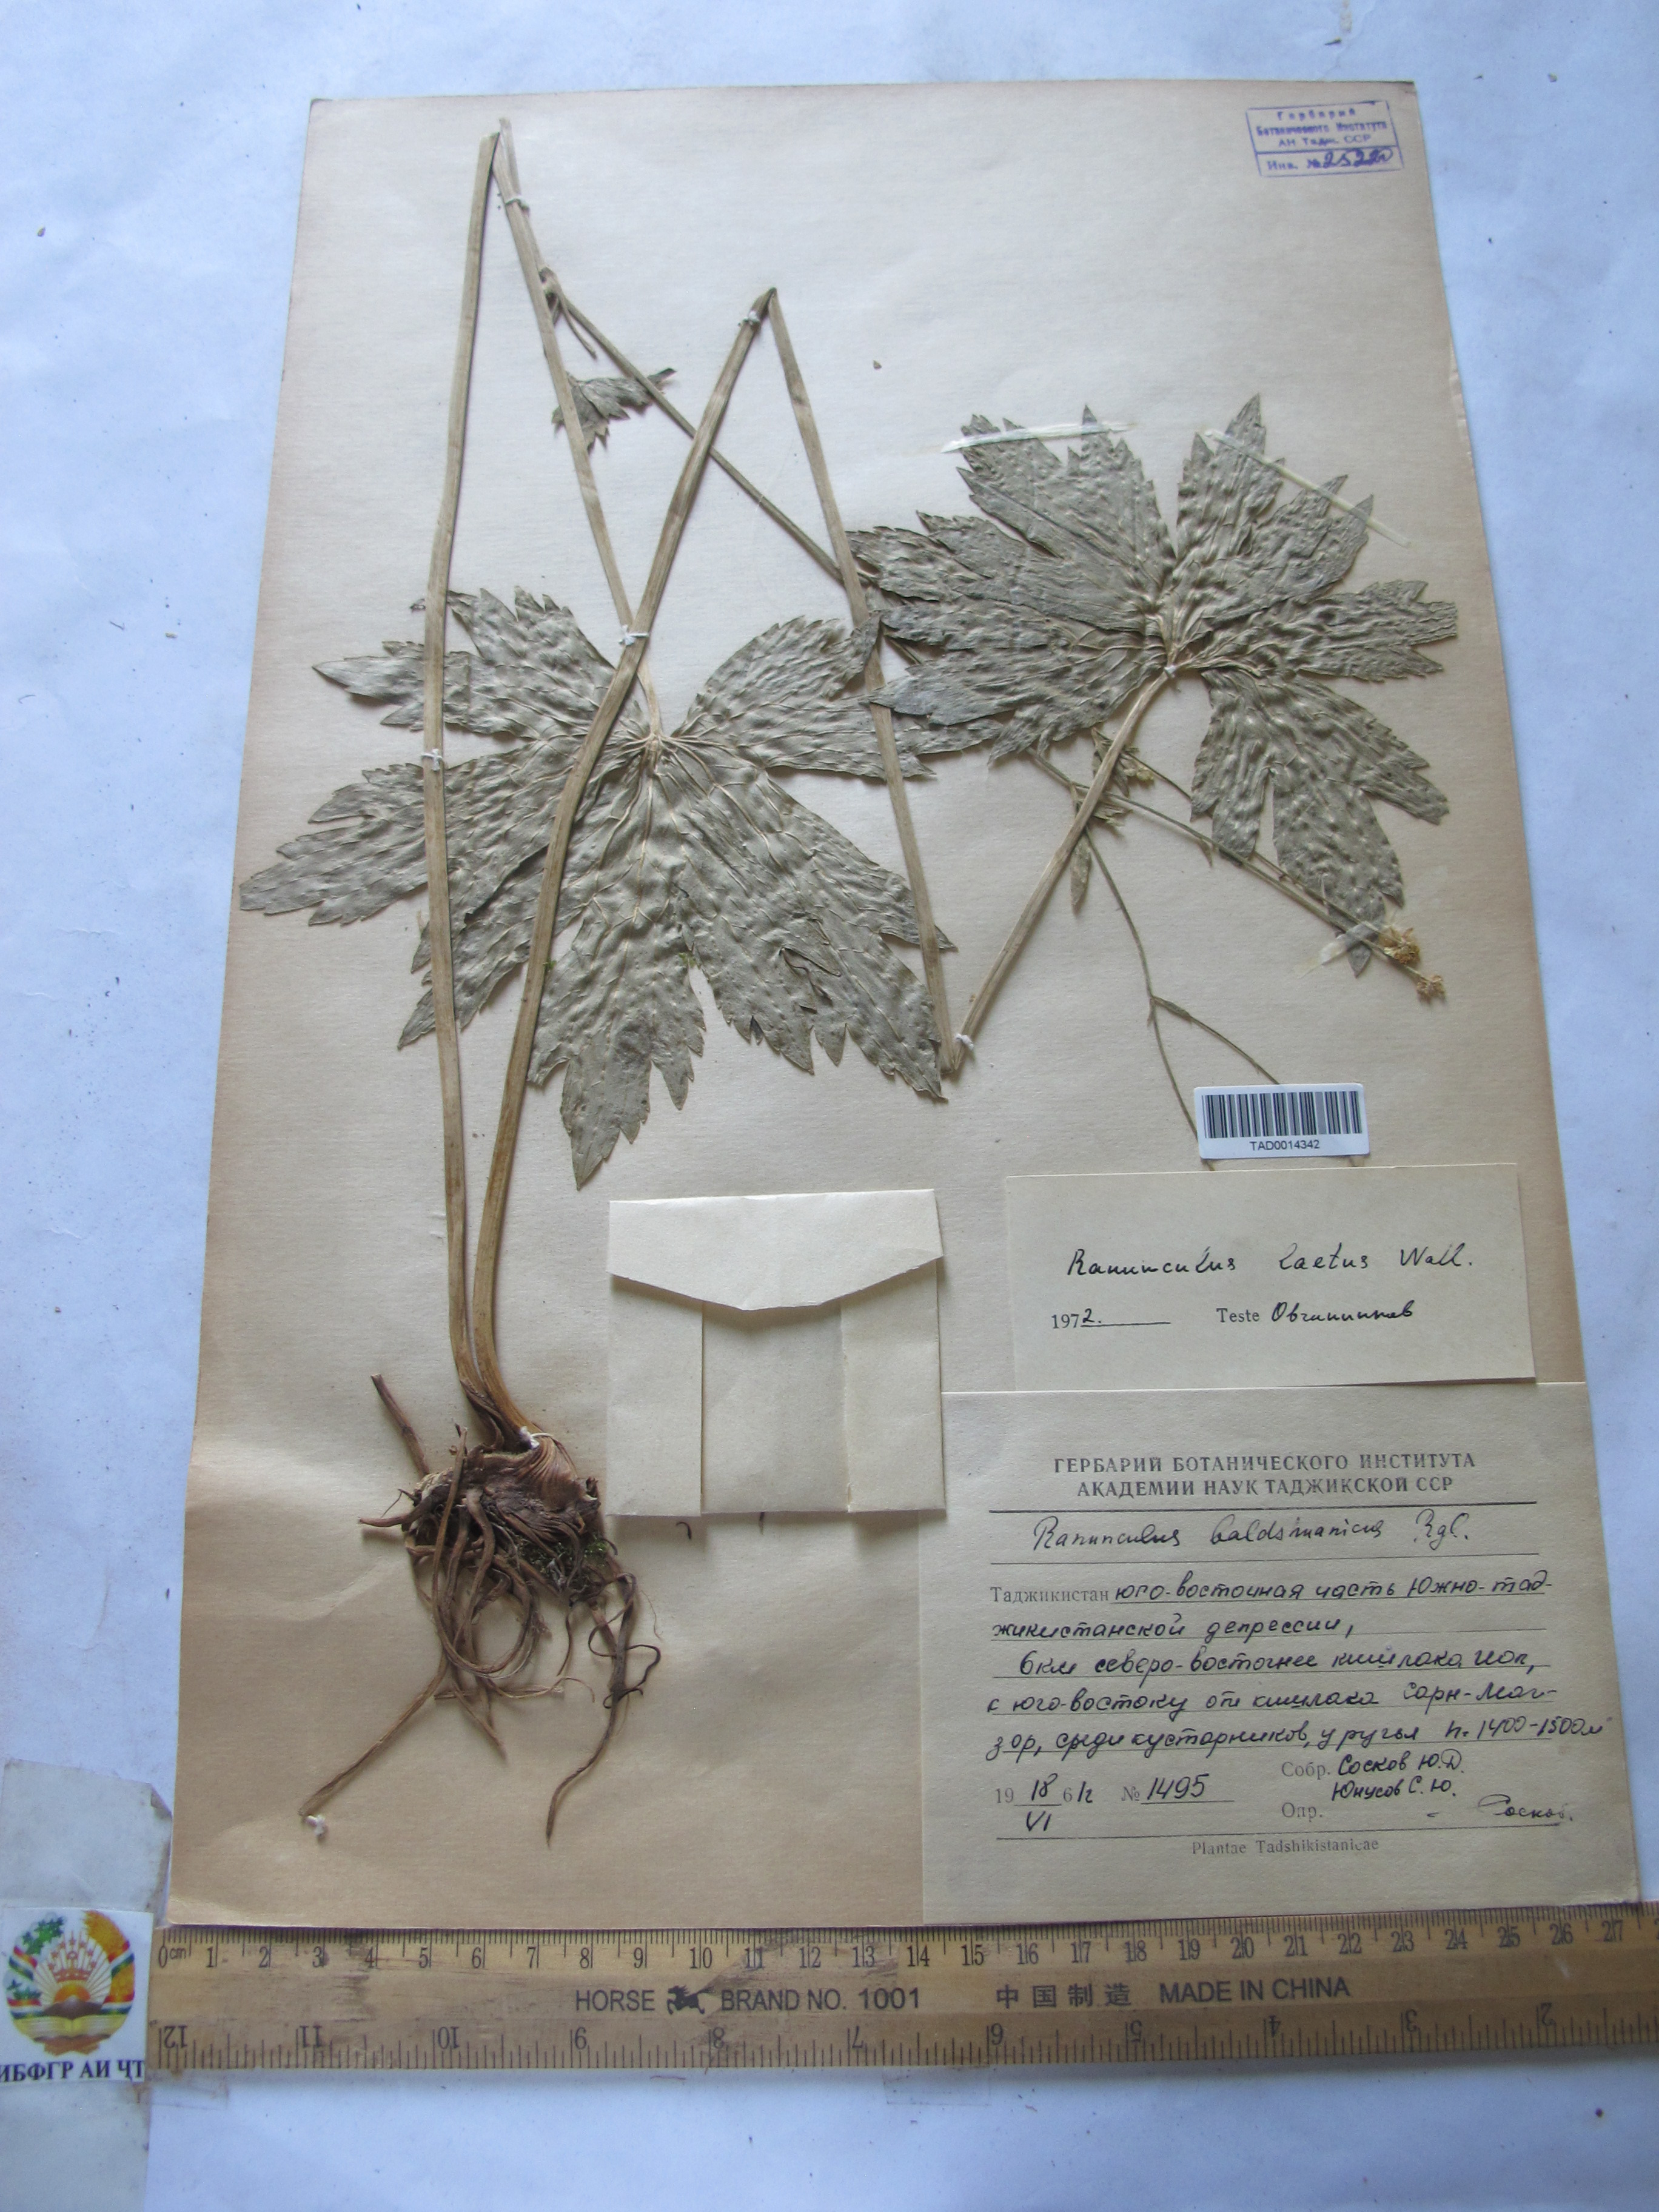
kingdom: Plantae
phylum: Tracheophyta
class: Magnoliopsida
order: Ranunculales
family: Ranunculaceae
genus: Ranunculus
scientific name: Ranunculus distans
